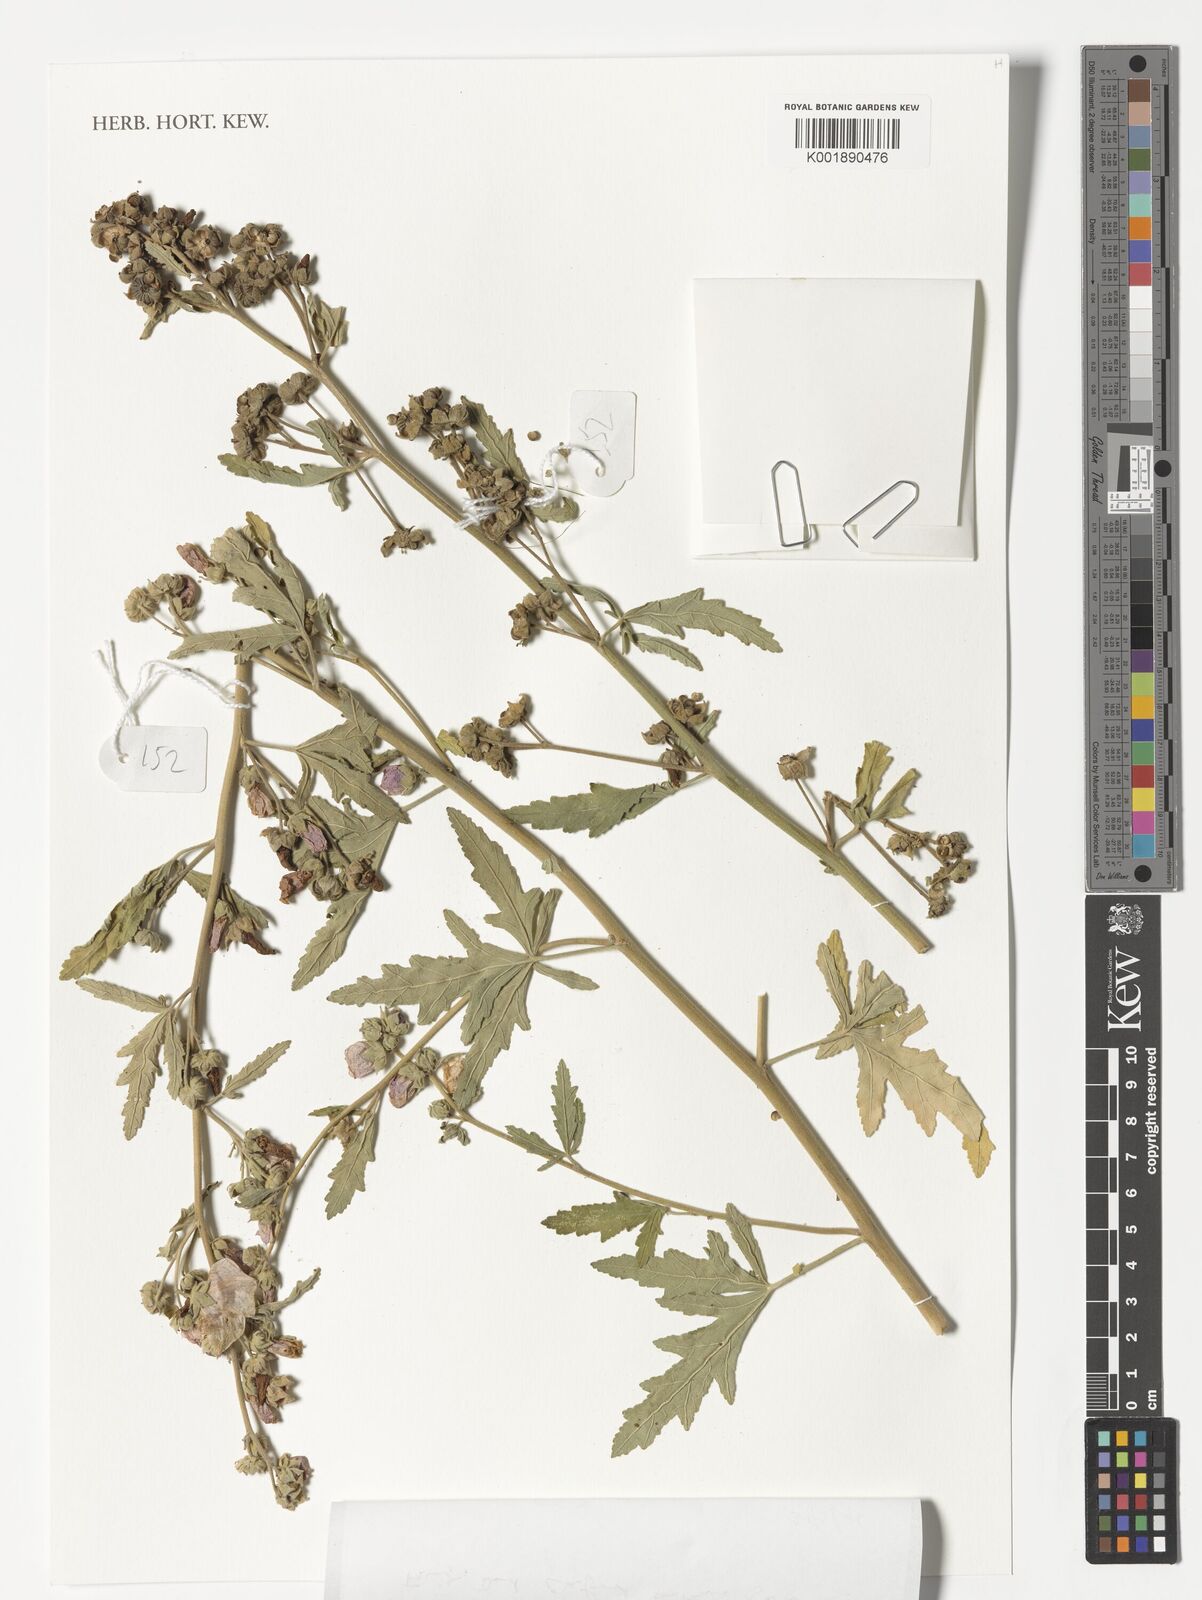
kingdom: Plantae
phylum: Tracheophyta
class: Magnoliopsida
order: Malvales
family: Malvaceae
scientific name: Malvaceae
